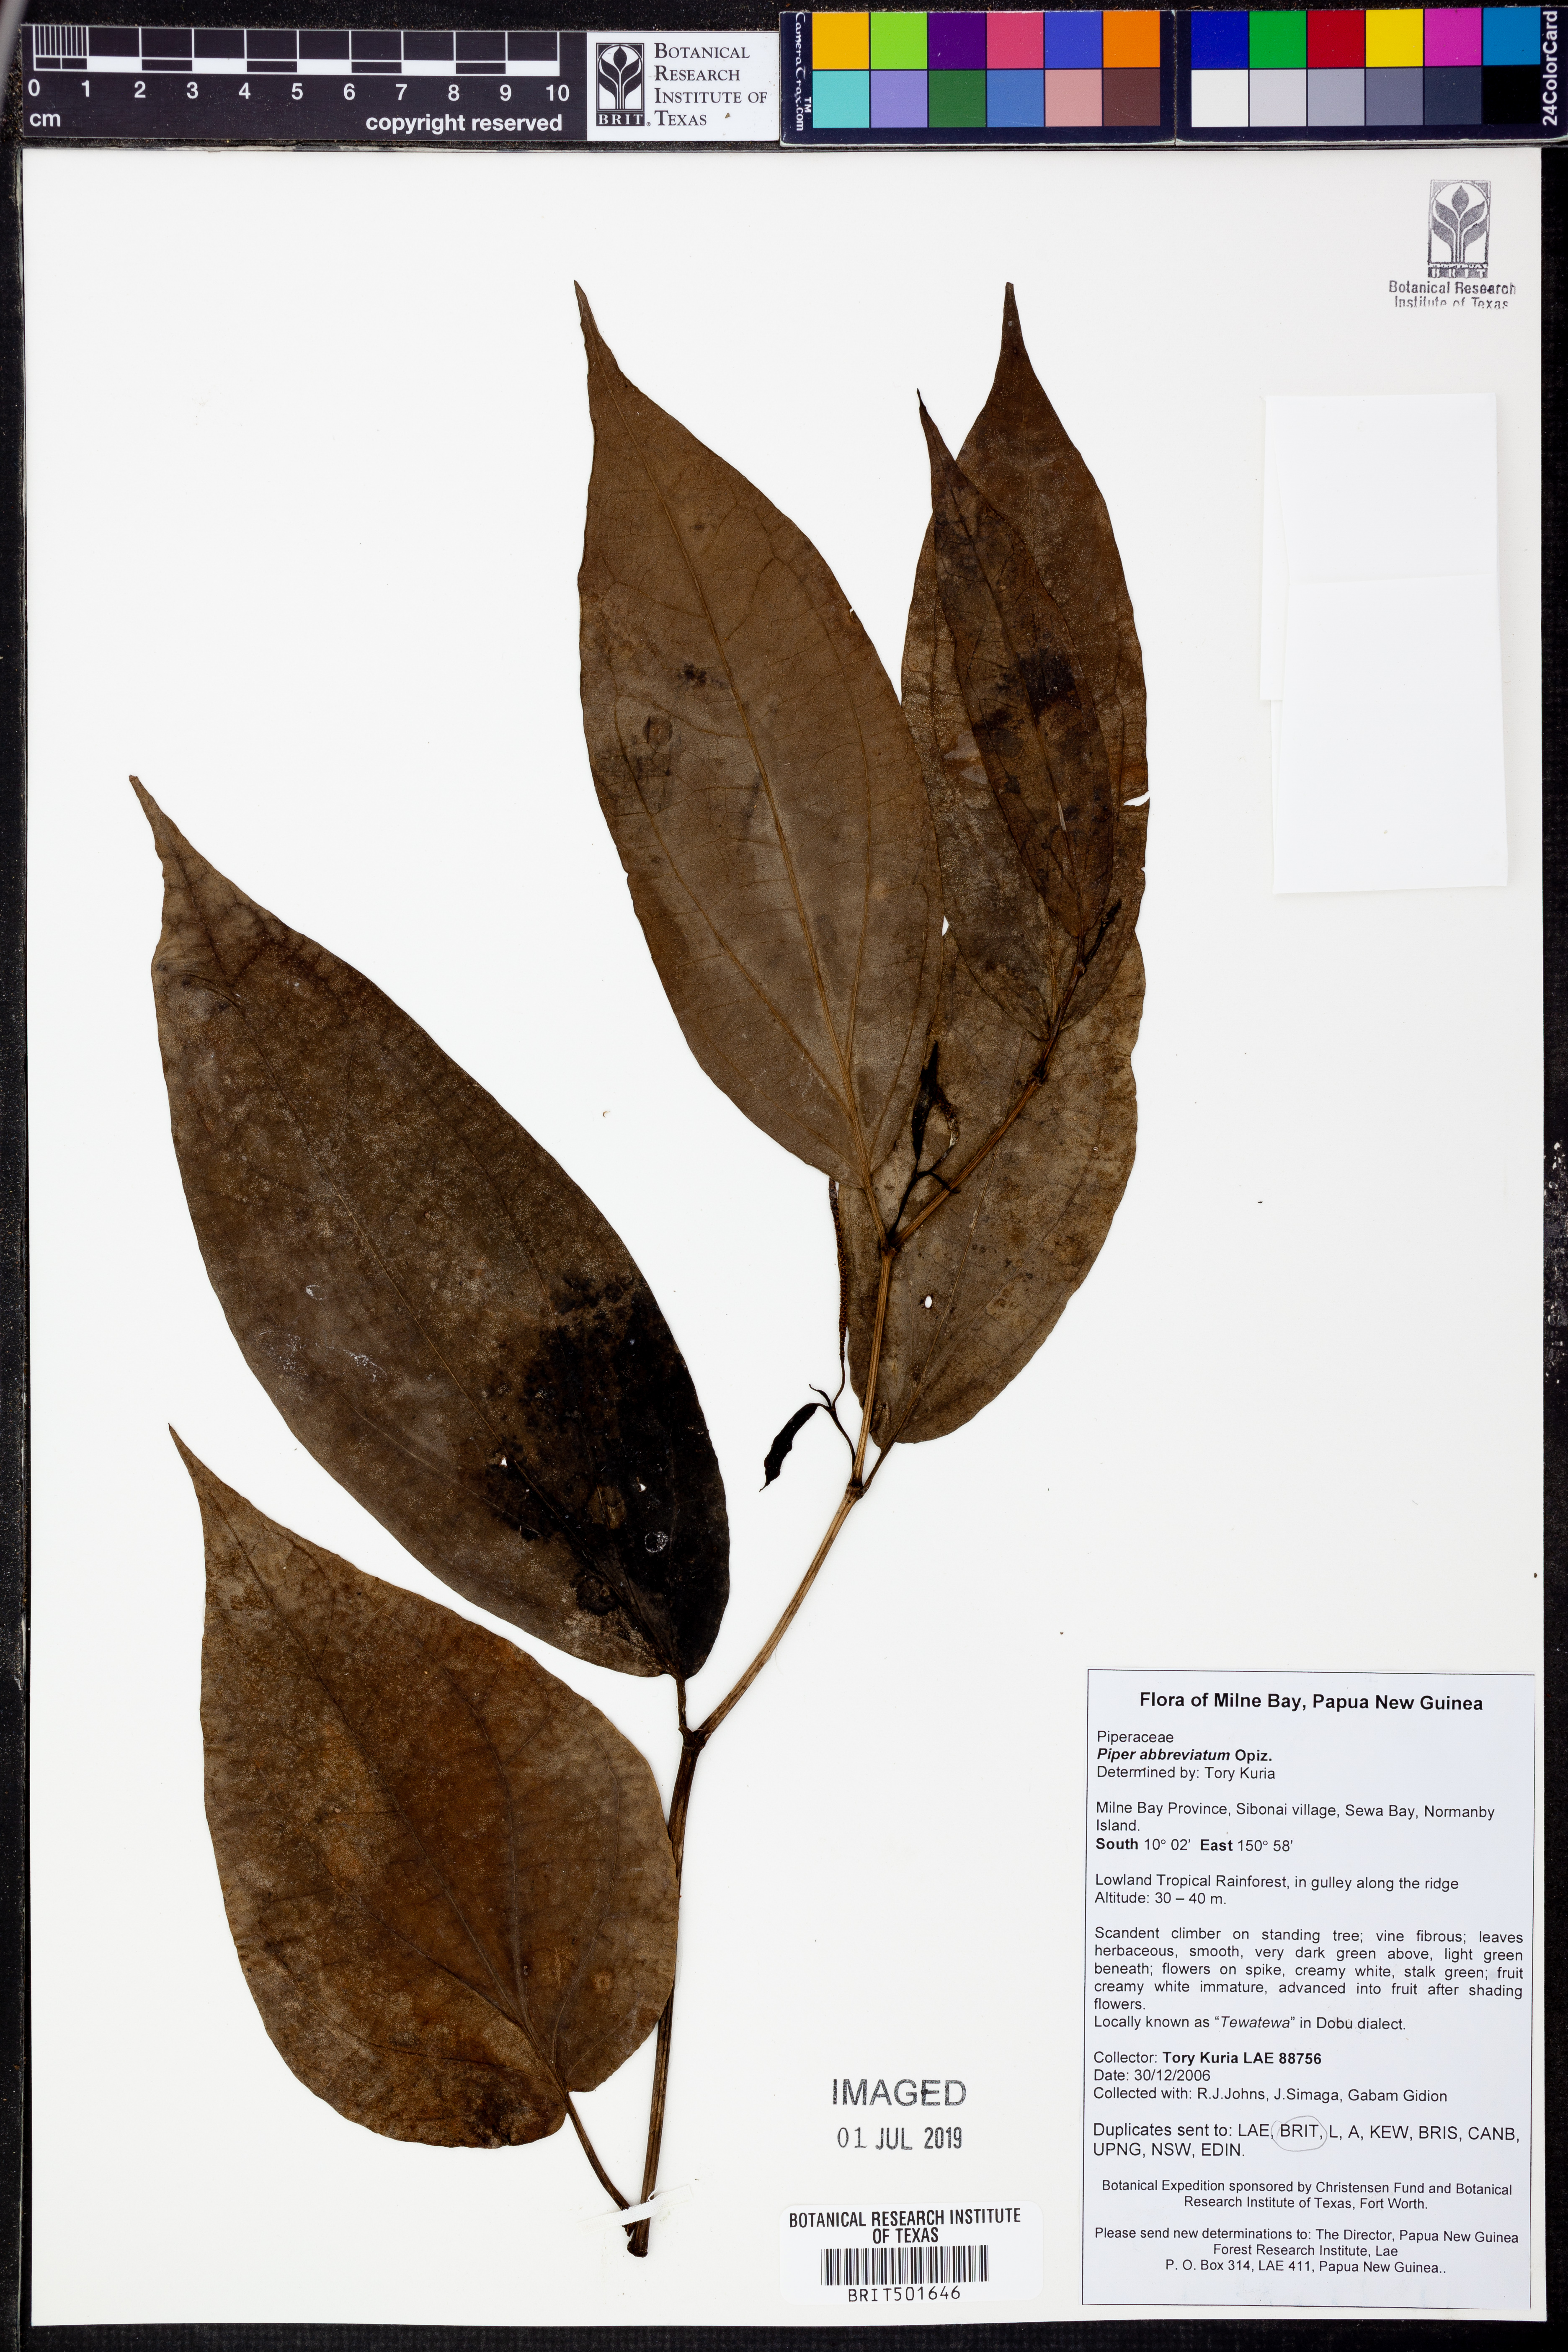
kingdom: Plantae
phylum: Tracheophyta
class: Magnoliopsida
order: Piperales
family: Piperaceae
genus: Piper
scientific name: Piper abbreviatum
